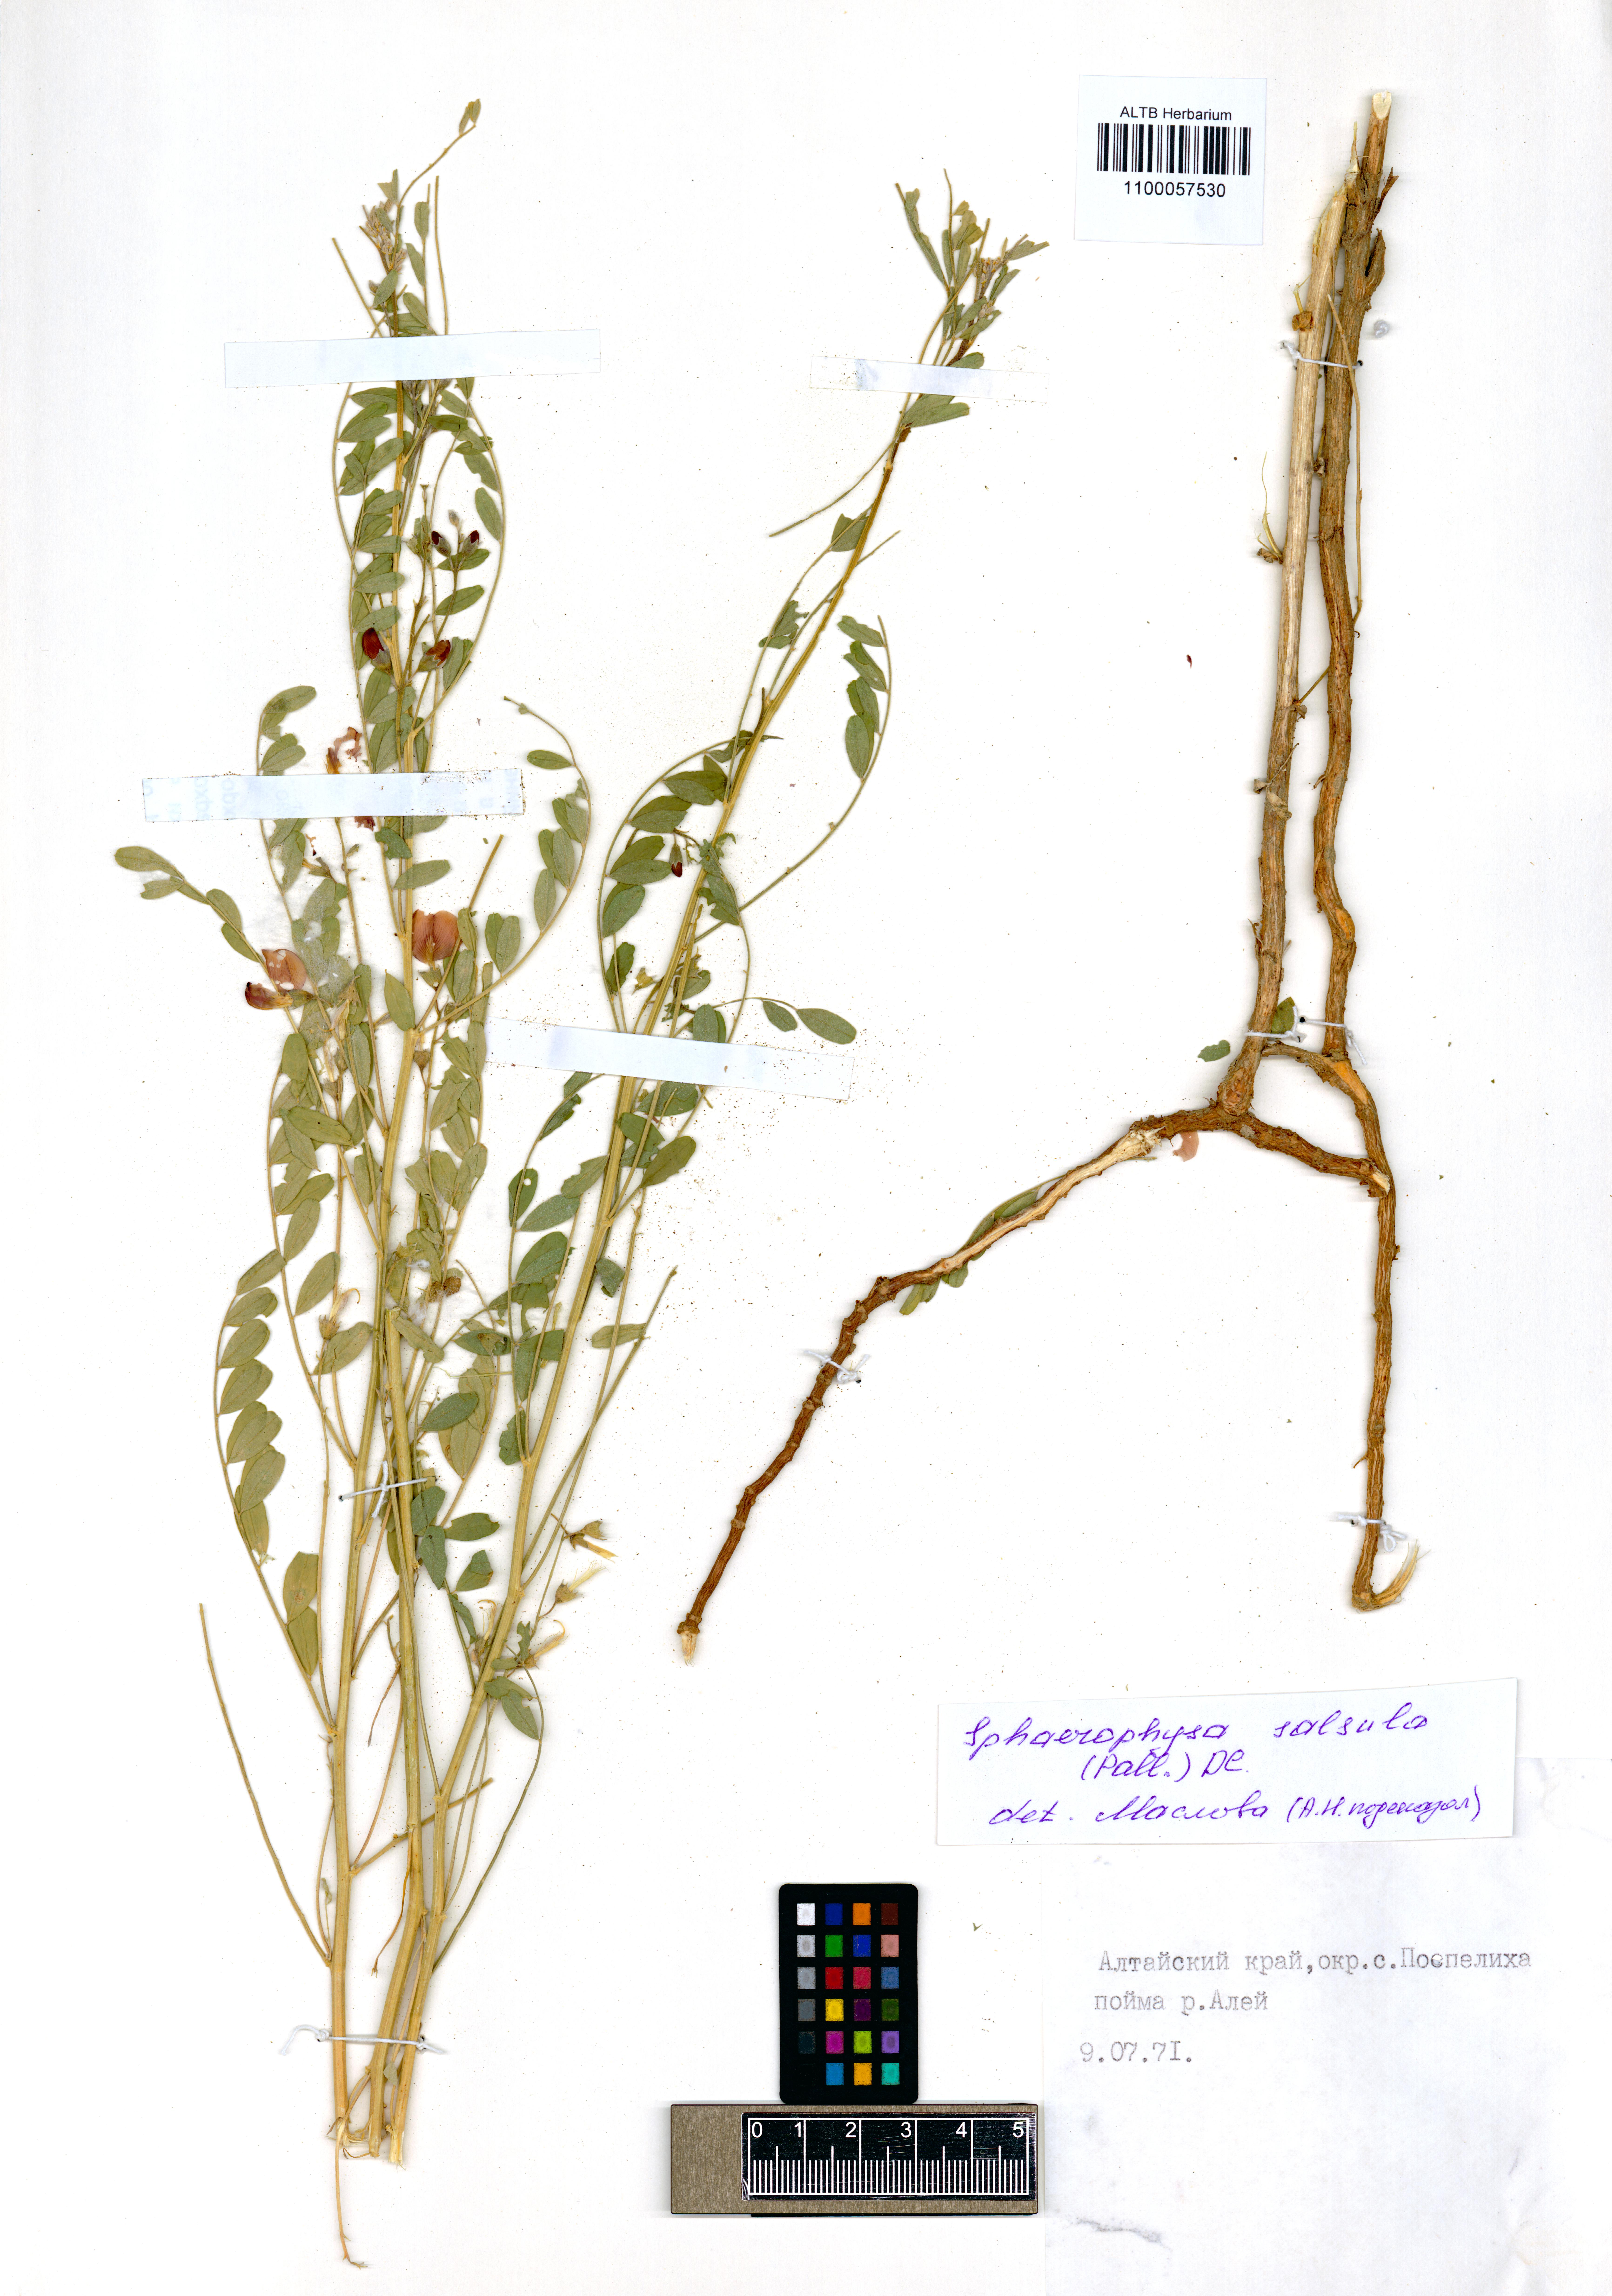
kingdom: Plantae
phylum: Tracheophyta
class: Magnoliopsida
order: Fabales
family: Fabaceae
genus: Sphaerophysa
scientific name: Sphaerophysa salsula
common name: Alkali swainsonpea
